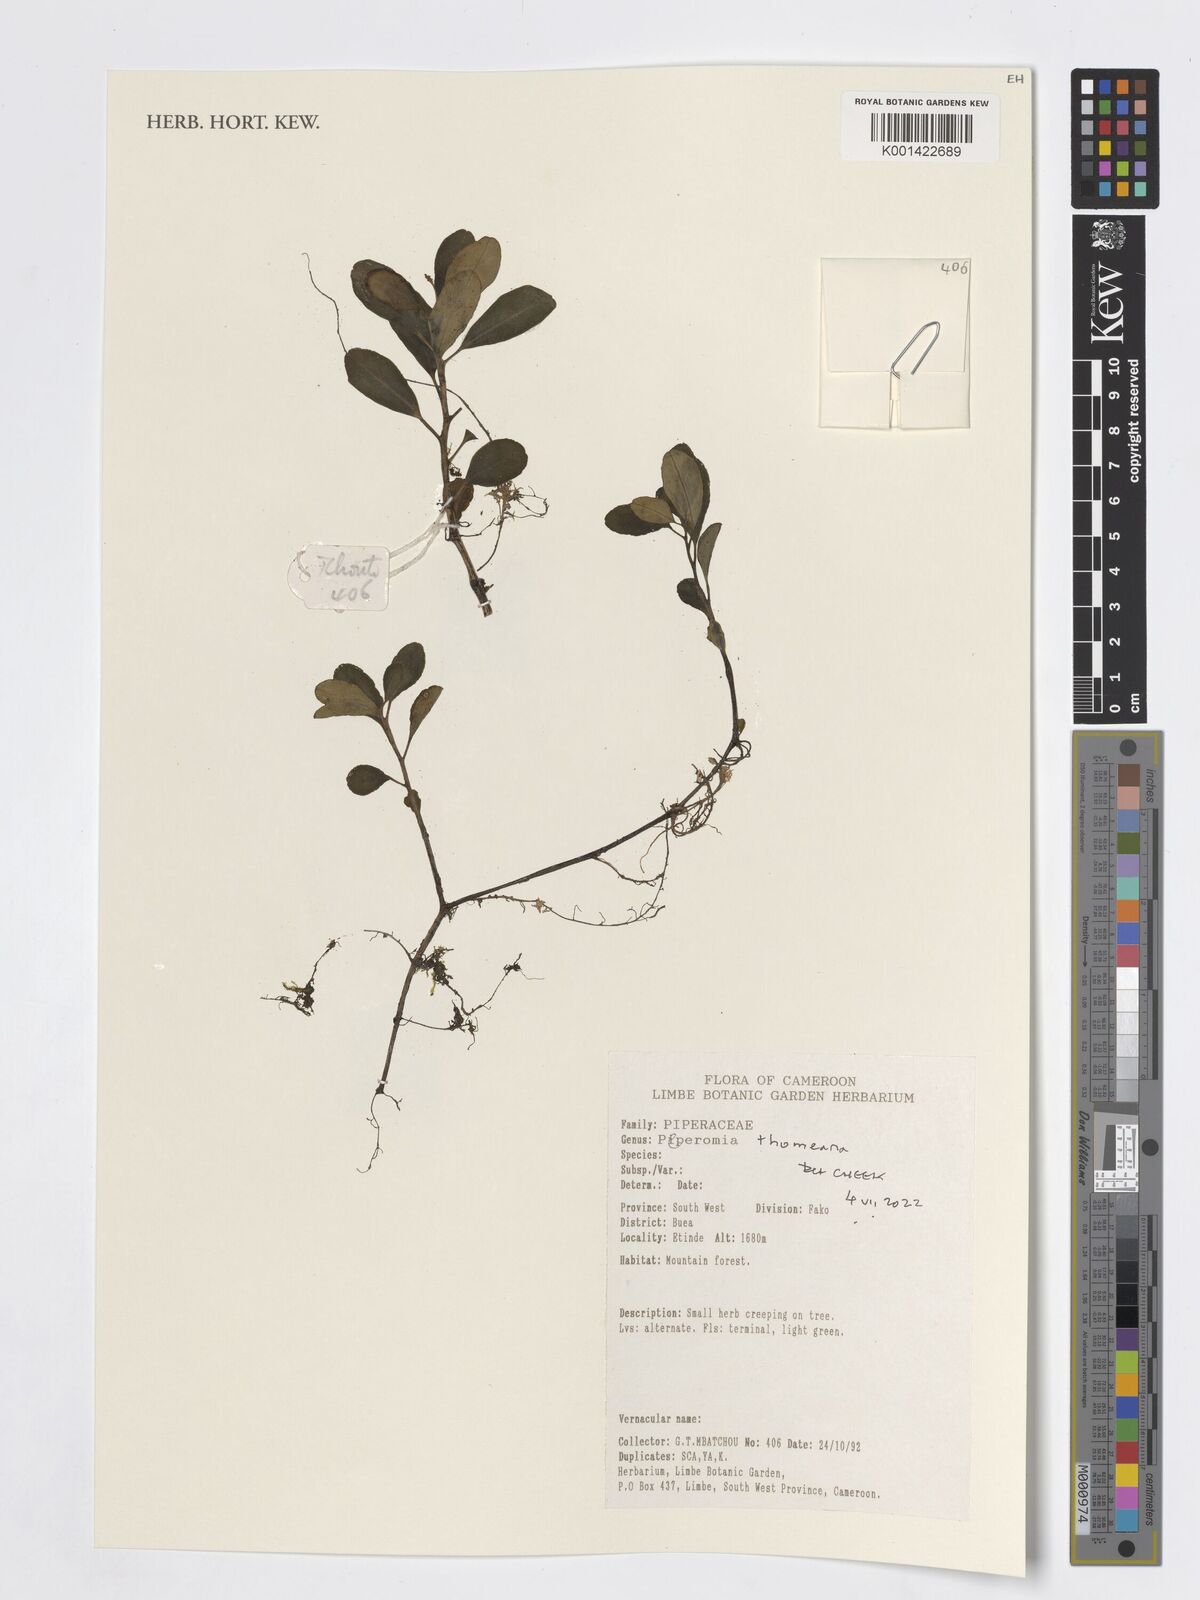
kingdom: Plantae
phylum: Tracheophyta
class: Magnoliopsida
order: Piperales
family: Piperaceae
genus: Peperomia
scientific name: Peperomia thomeana
